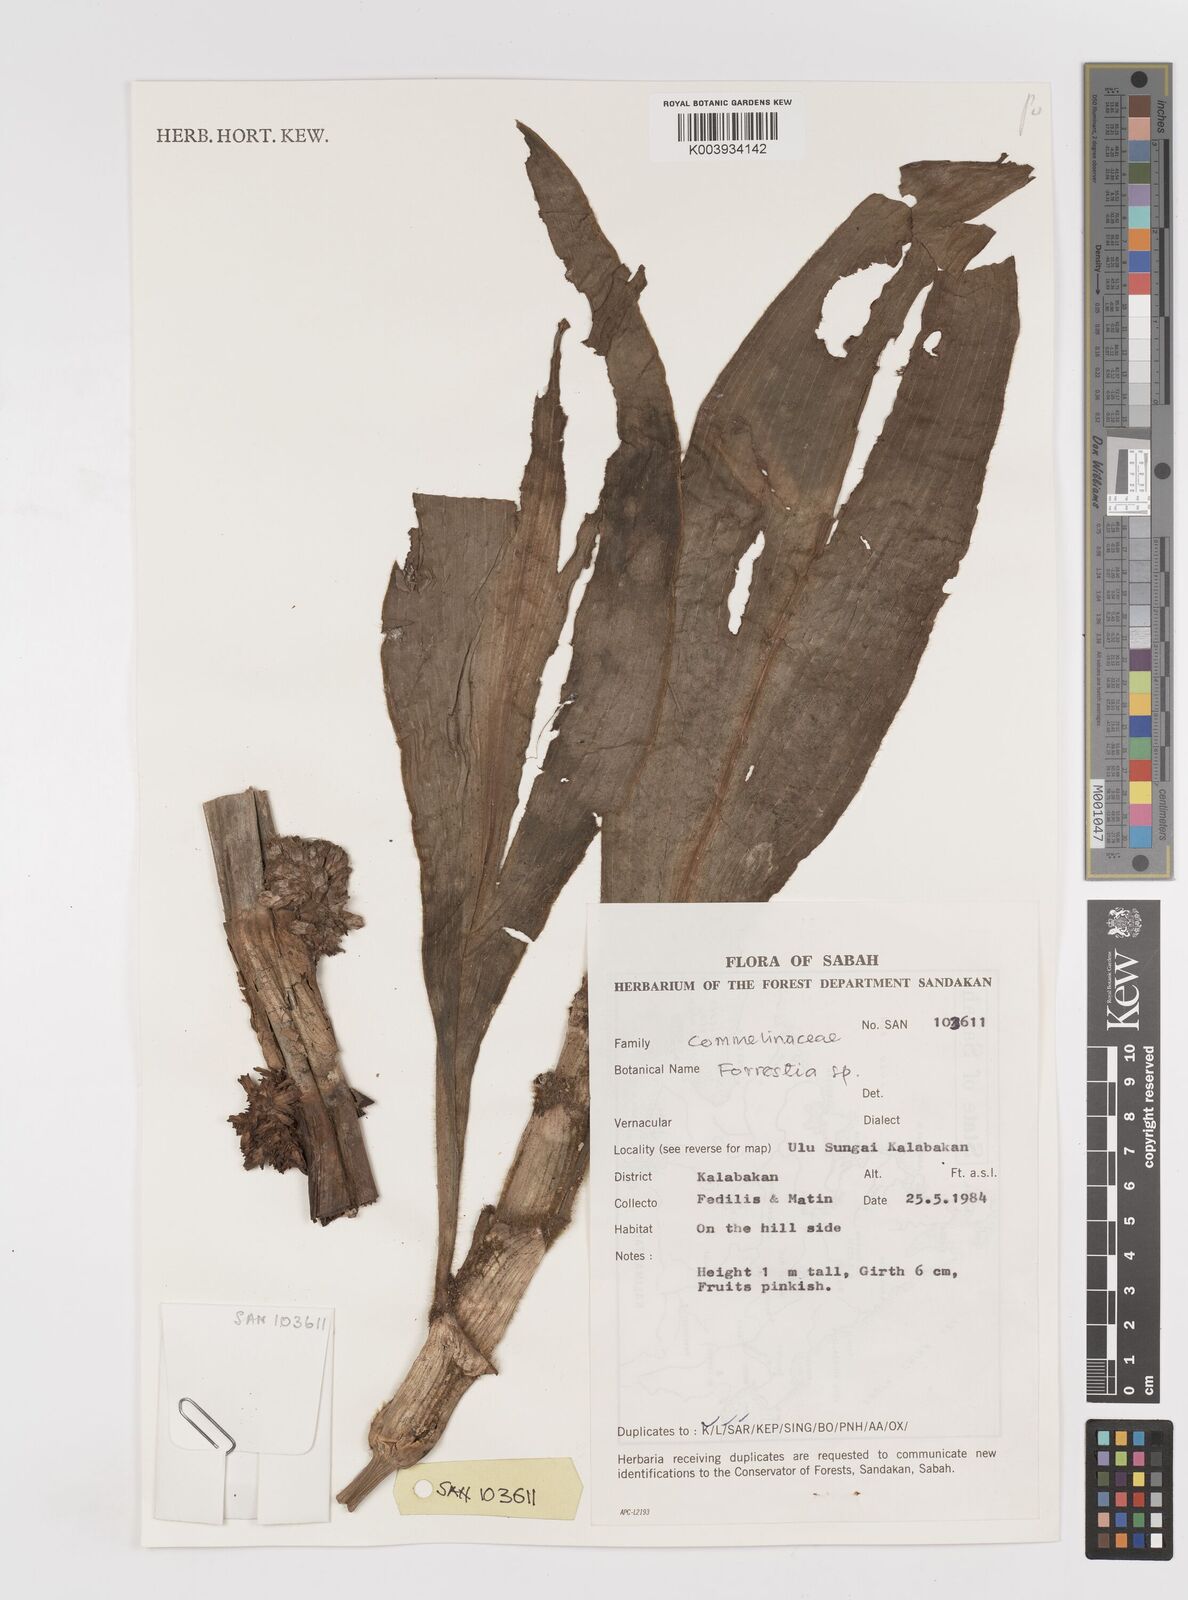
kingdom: Plantae
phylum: Tracheophyta
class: Liliopsida
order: Commelinales
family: Commelinaceae
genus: Amischotolype
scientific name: Amischotolype
